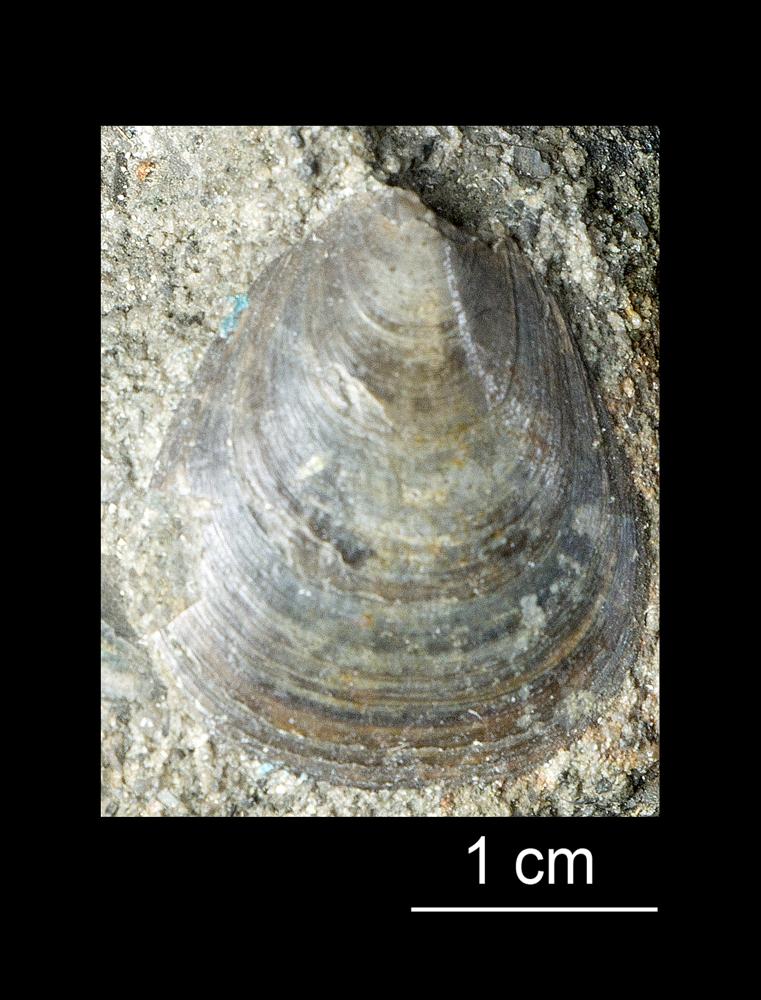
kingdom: Animalia
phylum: Brachiopoda
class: Lingulata
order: Lingulida
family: Obolidae
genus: Leptembolon
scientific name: Leptembolon lingulaeformis
